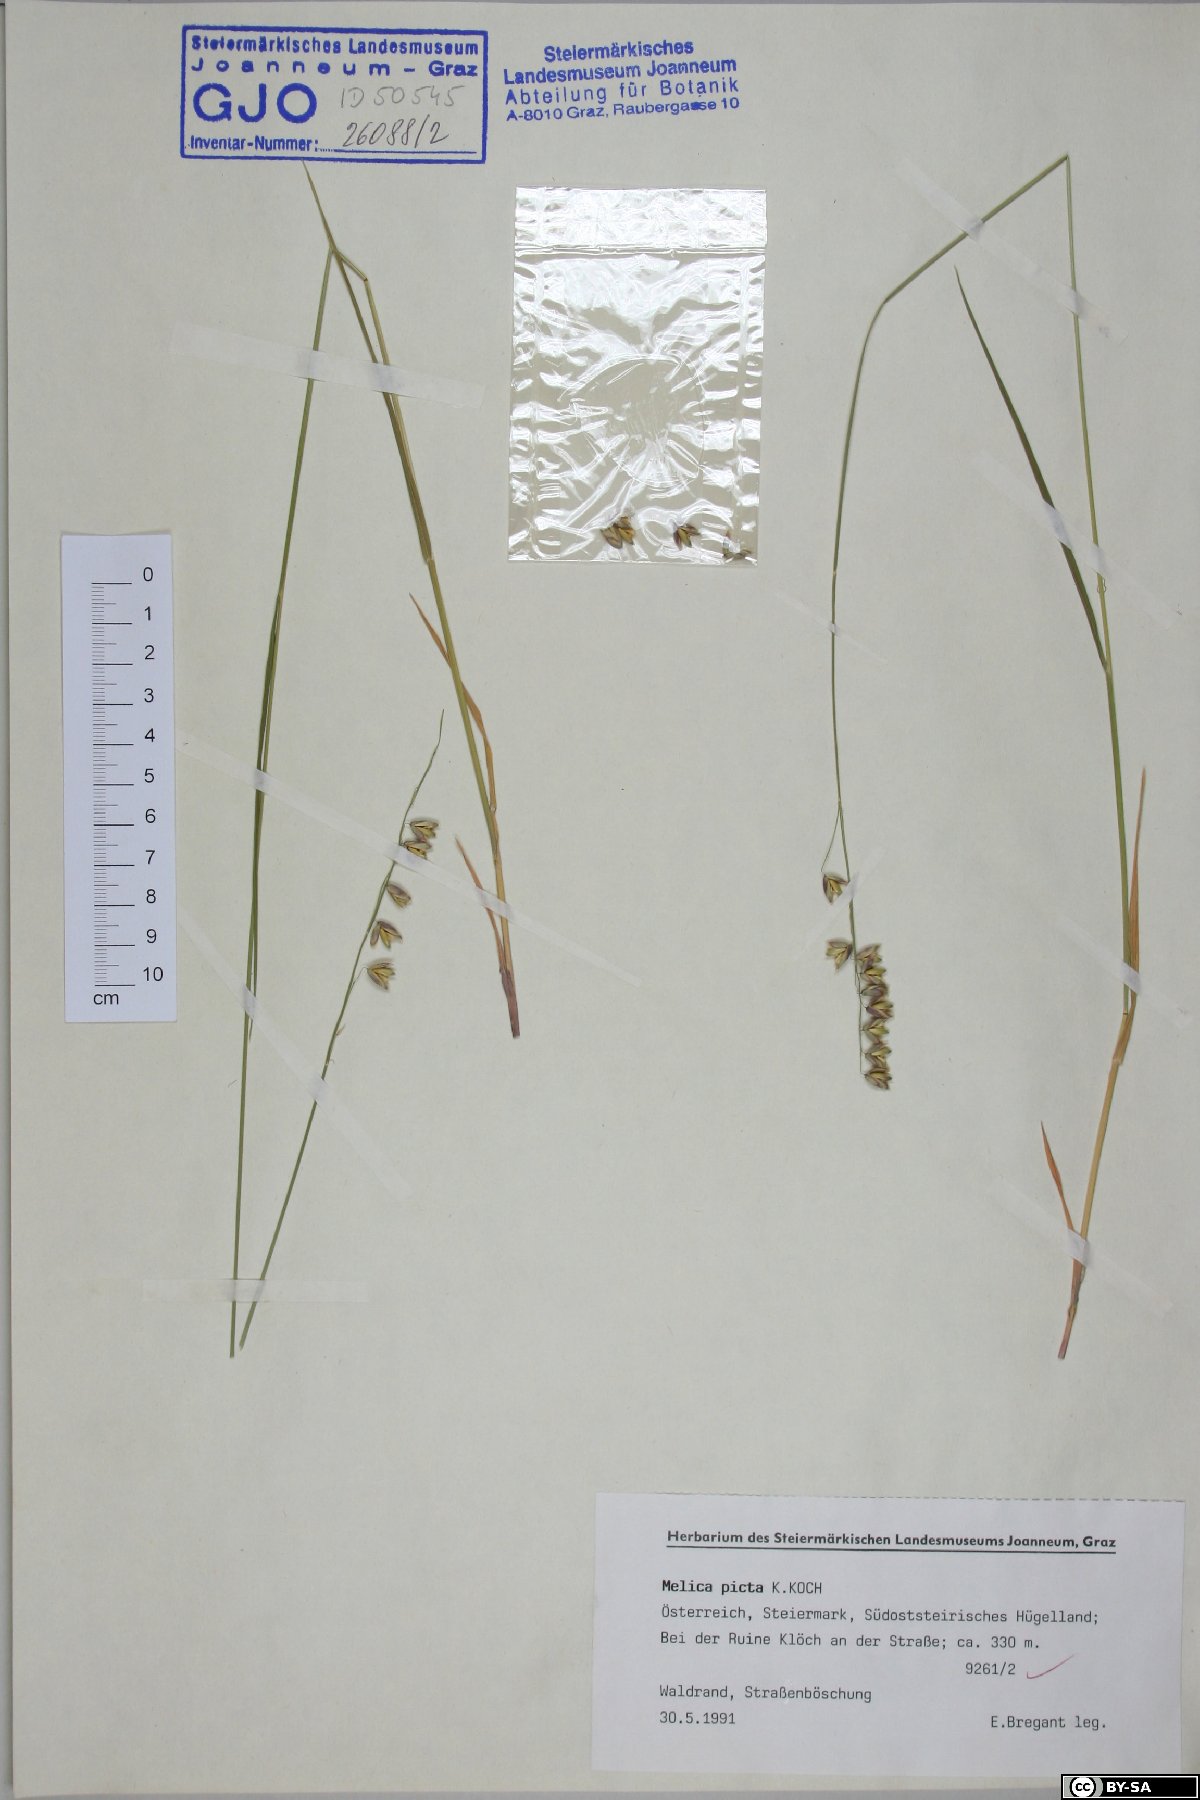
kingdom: Plantae
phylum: Tracheophyta
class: Liliopsida
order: Poales
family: Poaceae
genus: Melica
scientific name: Melica picta
